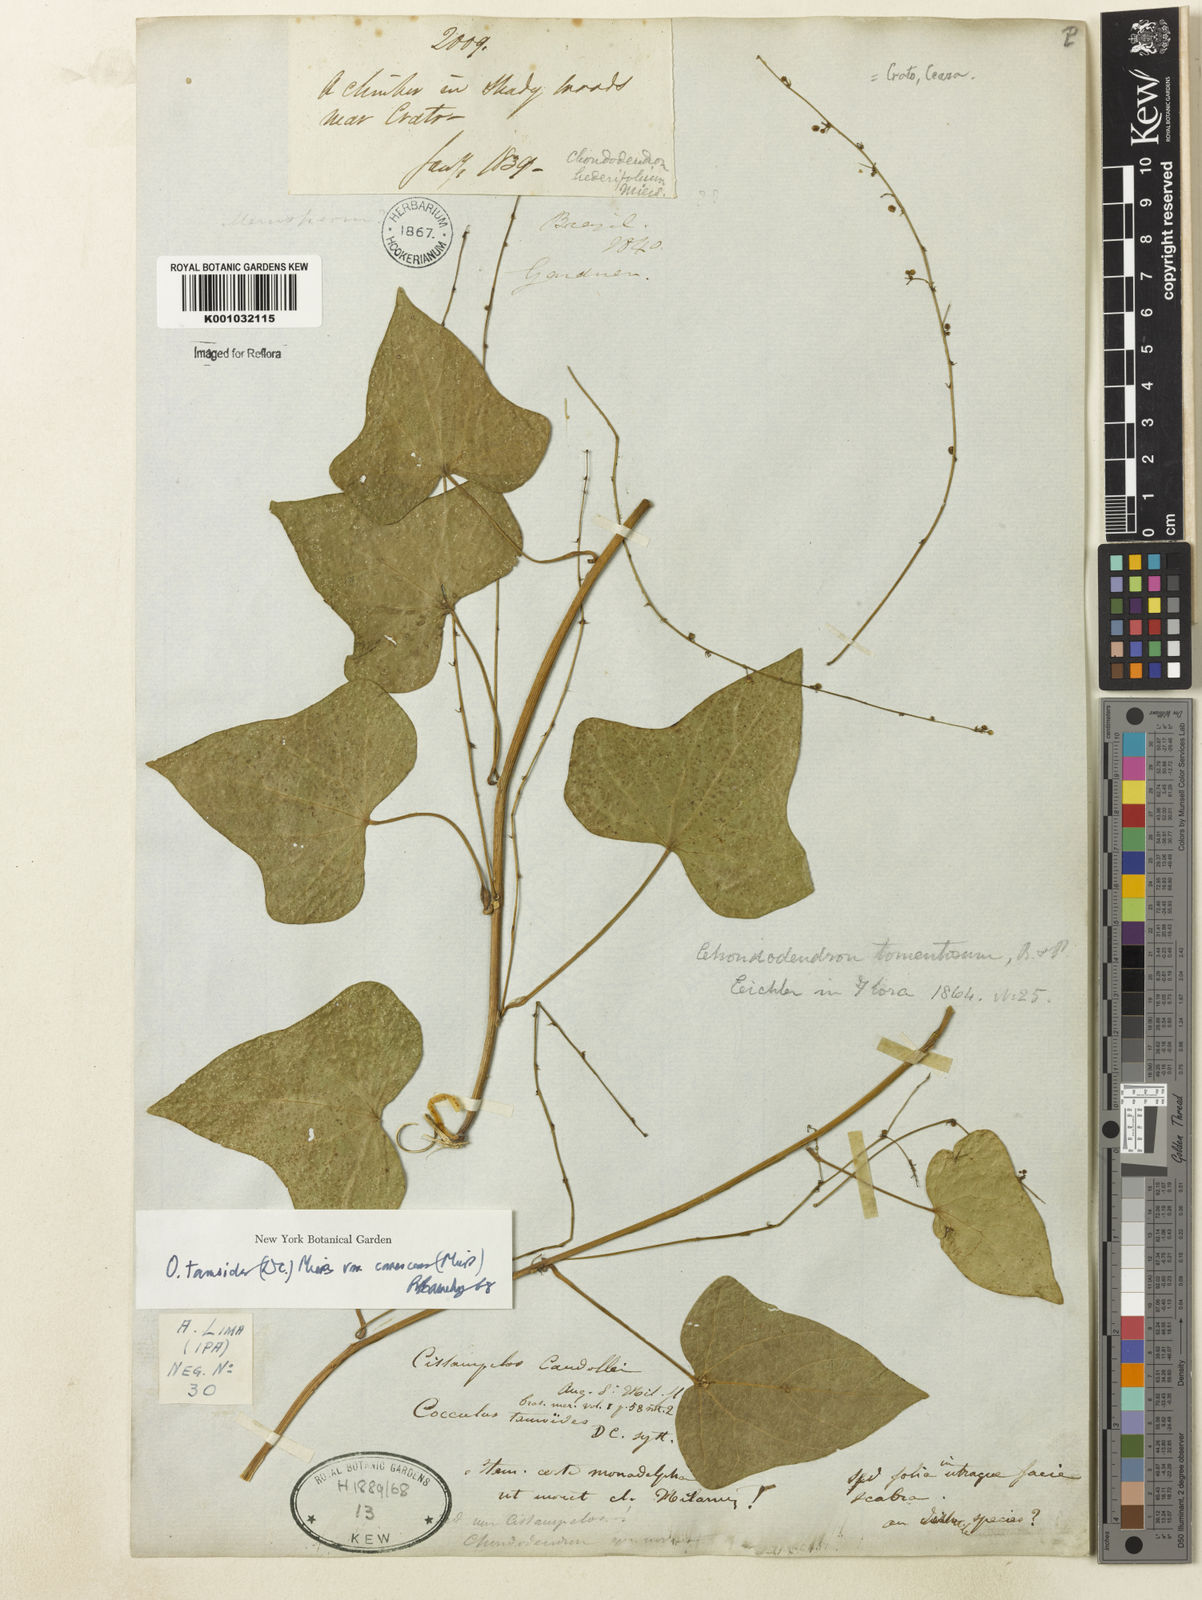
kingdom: Plantae
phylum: Tracheophyta
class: Magnoliopsida
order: Ranunculales
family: Menispermaceae
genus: Odontocarya
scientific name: Odontocarya tamoides
